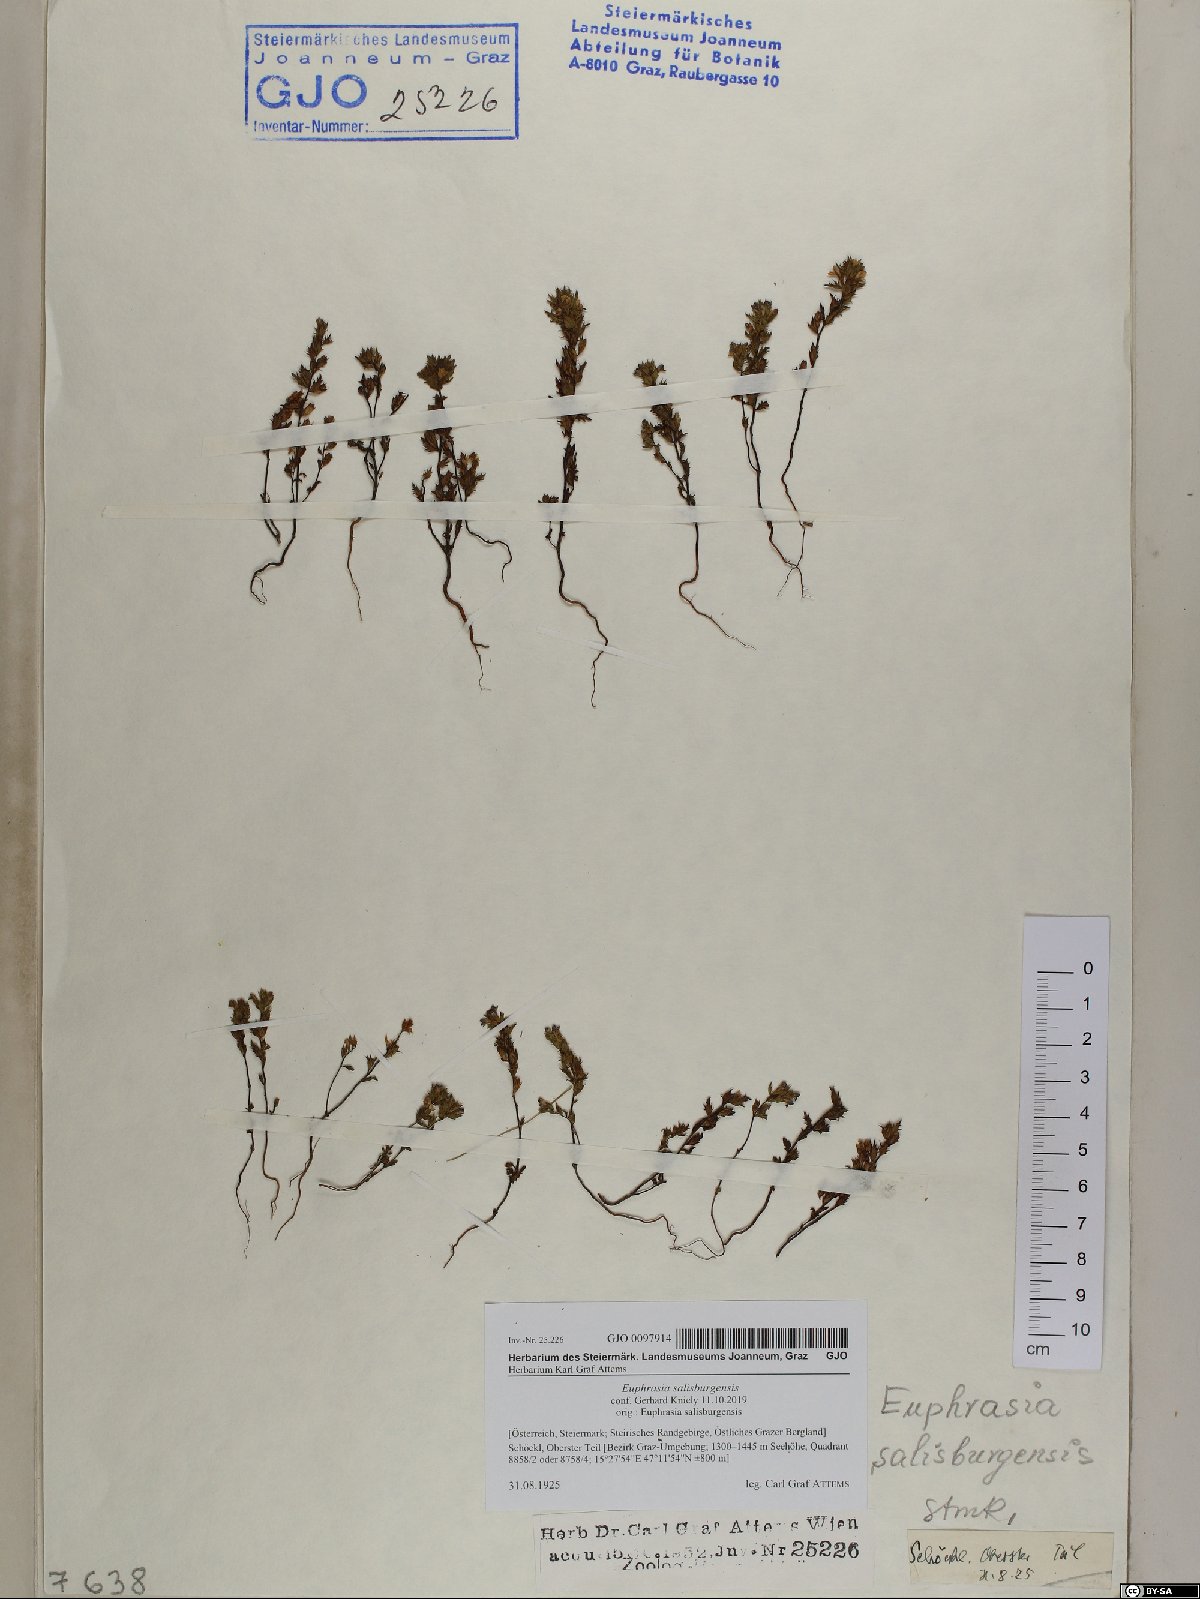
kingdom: Plantae
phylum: Tracheophyta
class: Magnoliopsida
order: Lamiales
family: Orobanchaceae
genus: Euphrasia
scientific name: Euphrasia salisburgensis
